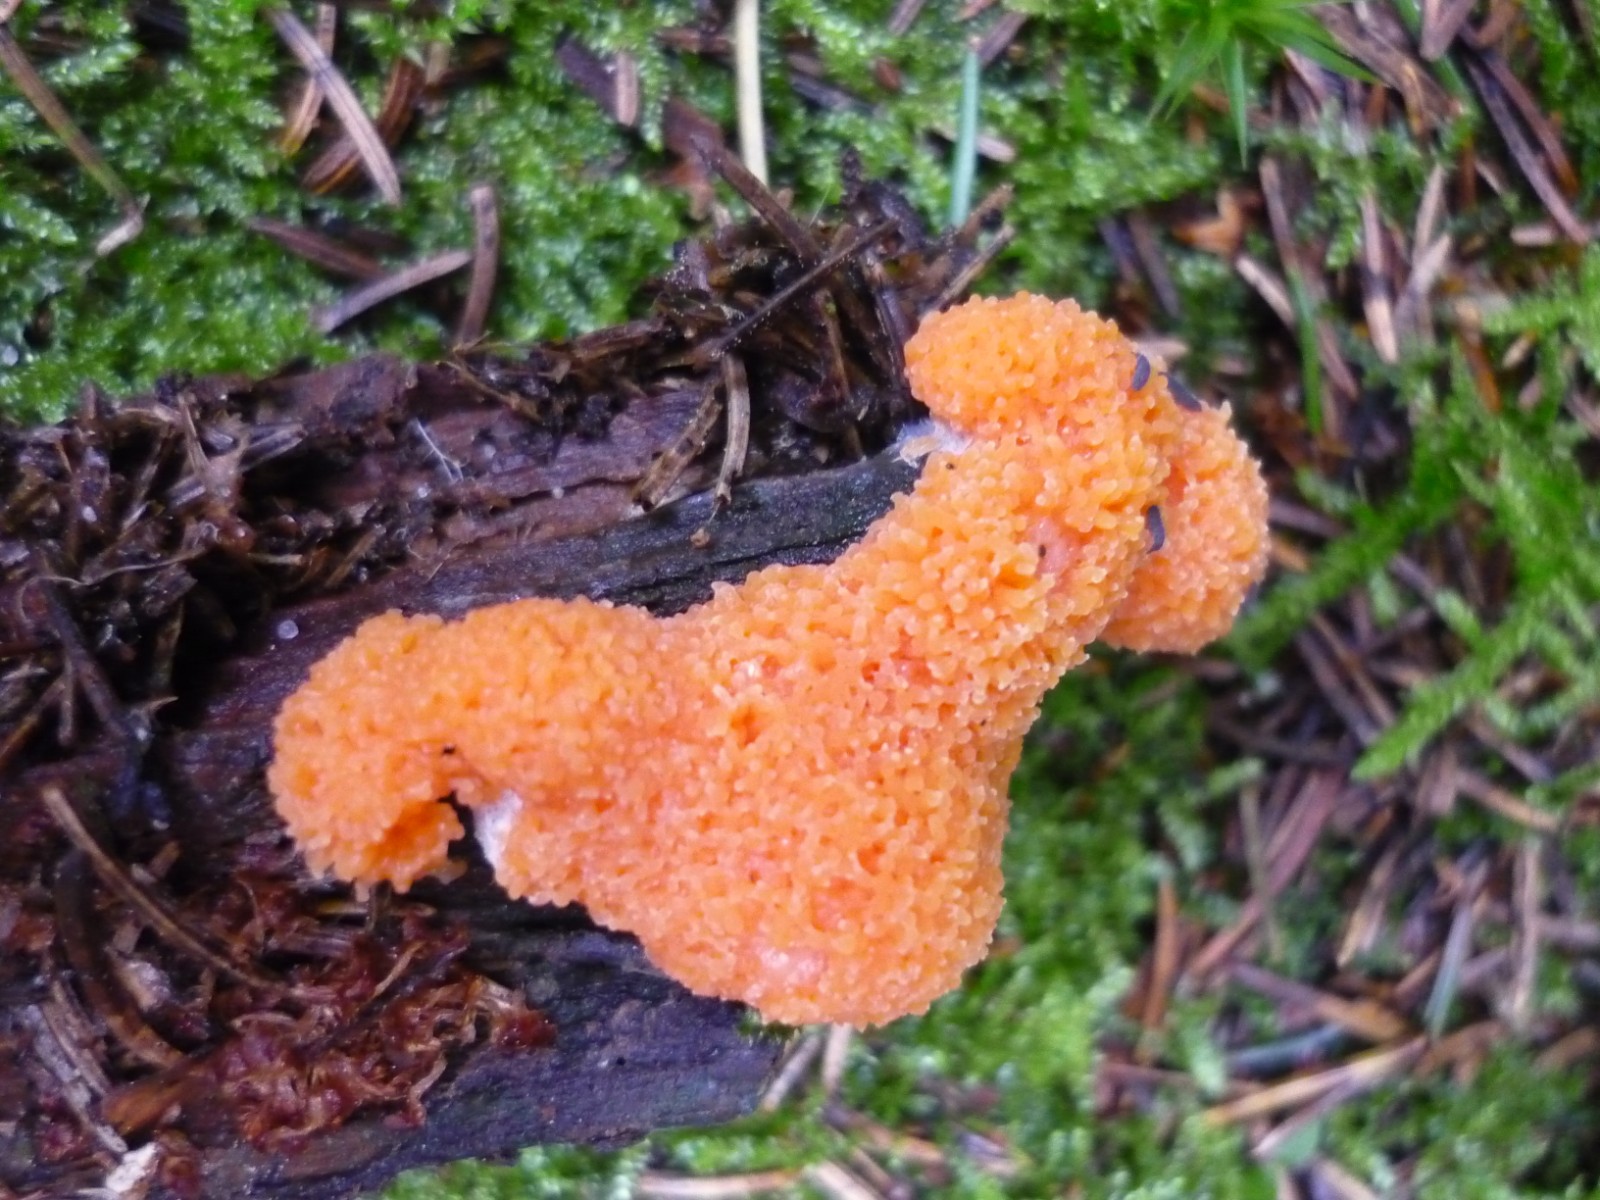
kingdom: Protozoa
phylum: Mycetozoa
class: Myxomycetes
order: Cribrariales
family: Tubiferaceae
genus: Tubifera
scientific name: Tubifera ferruginosa
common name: kanel-støvrør
